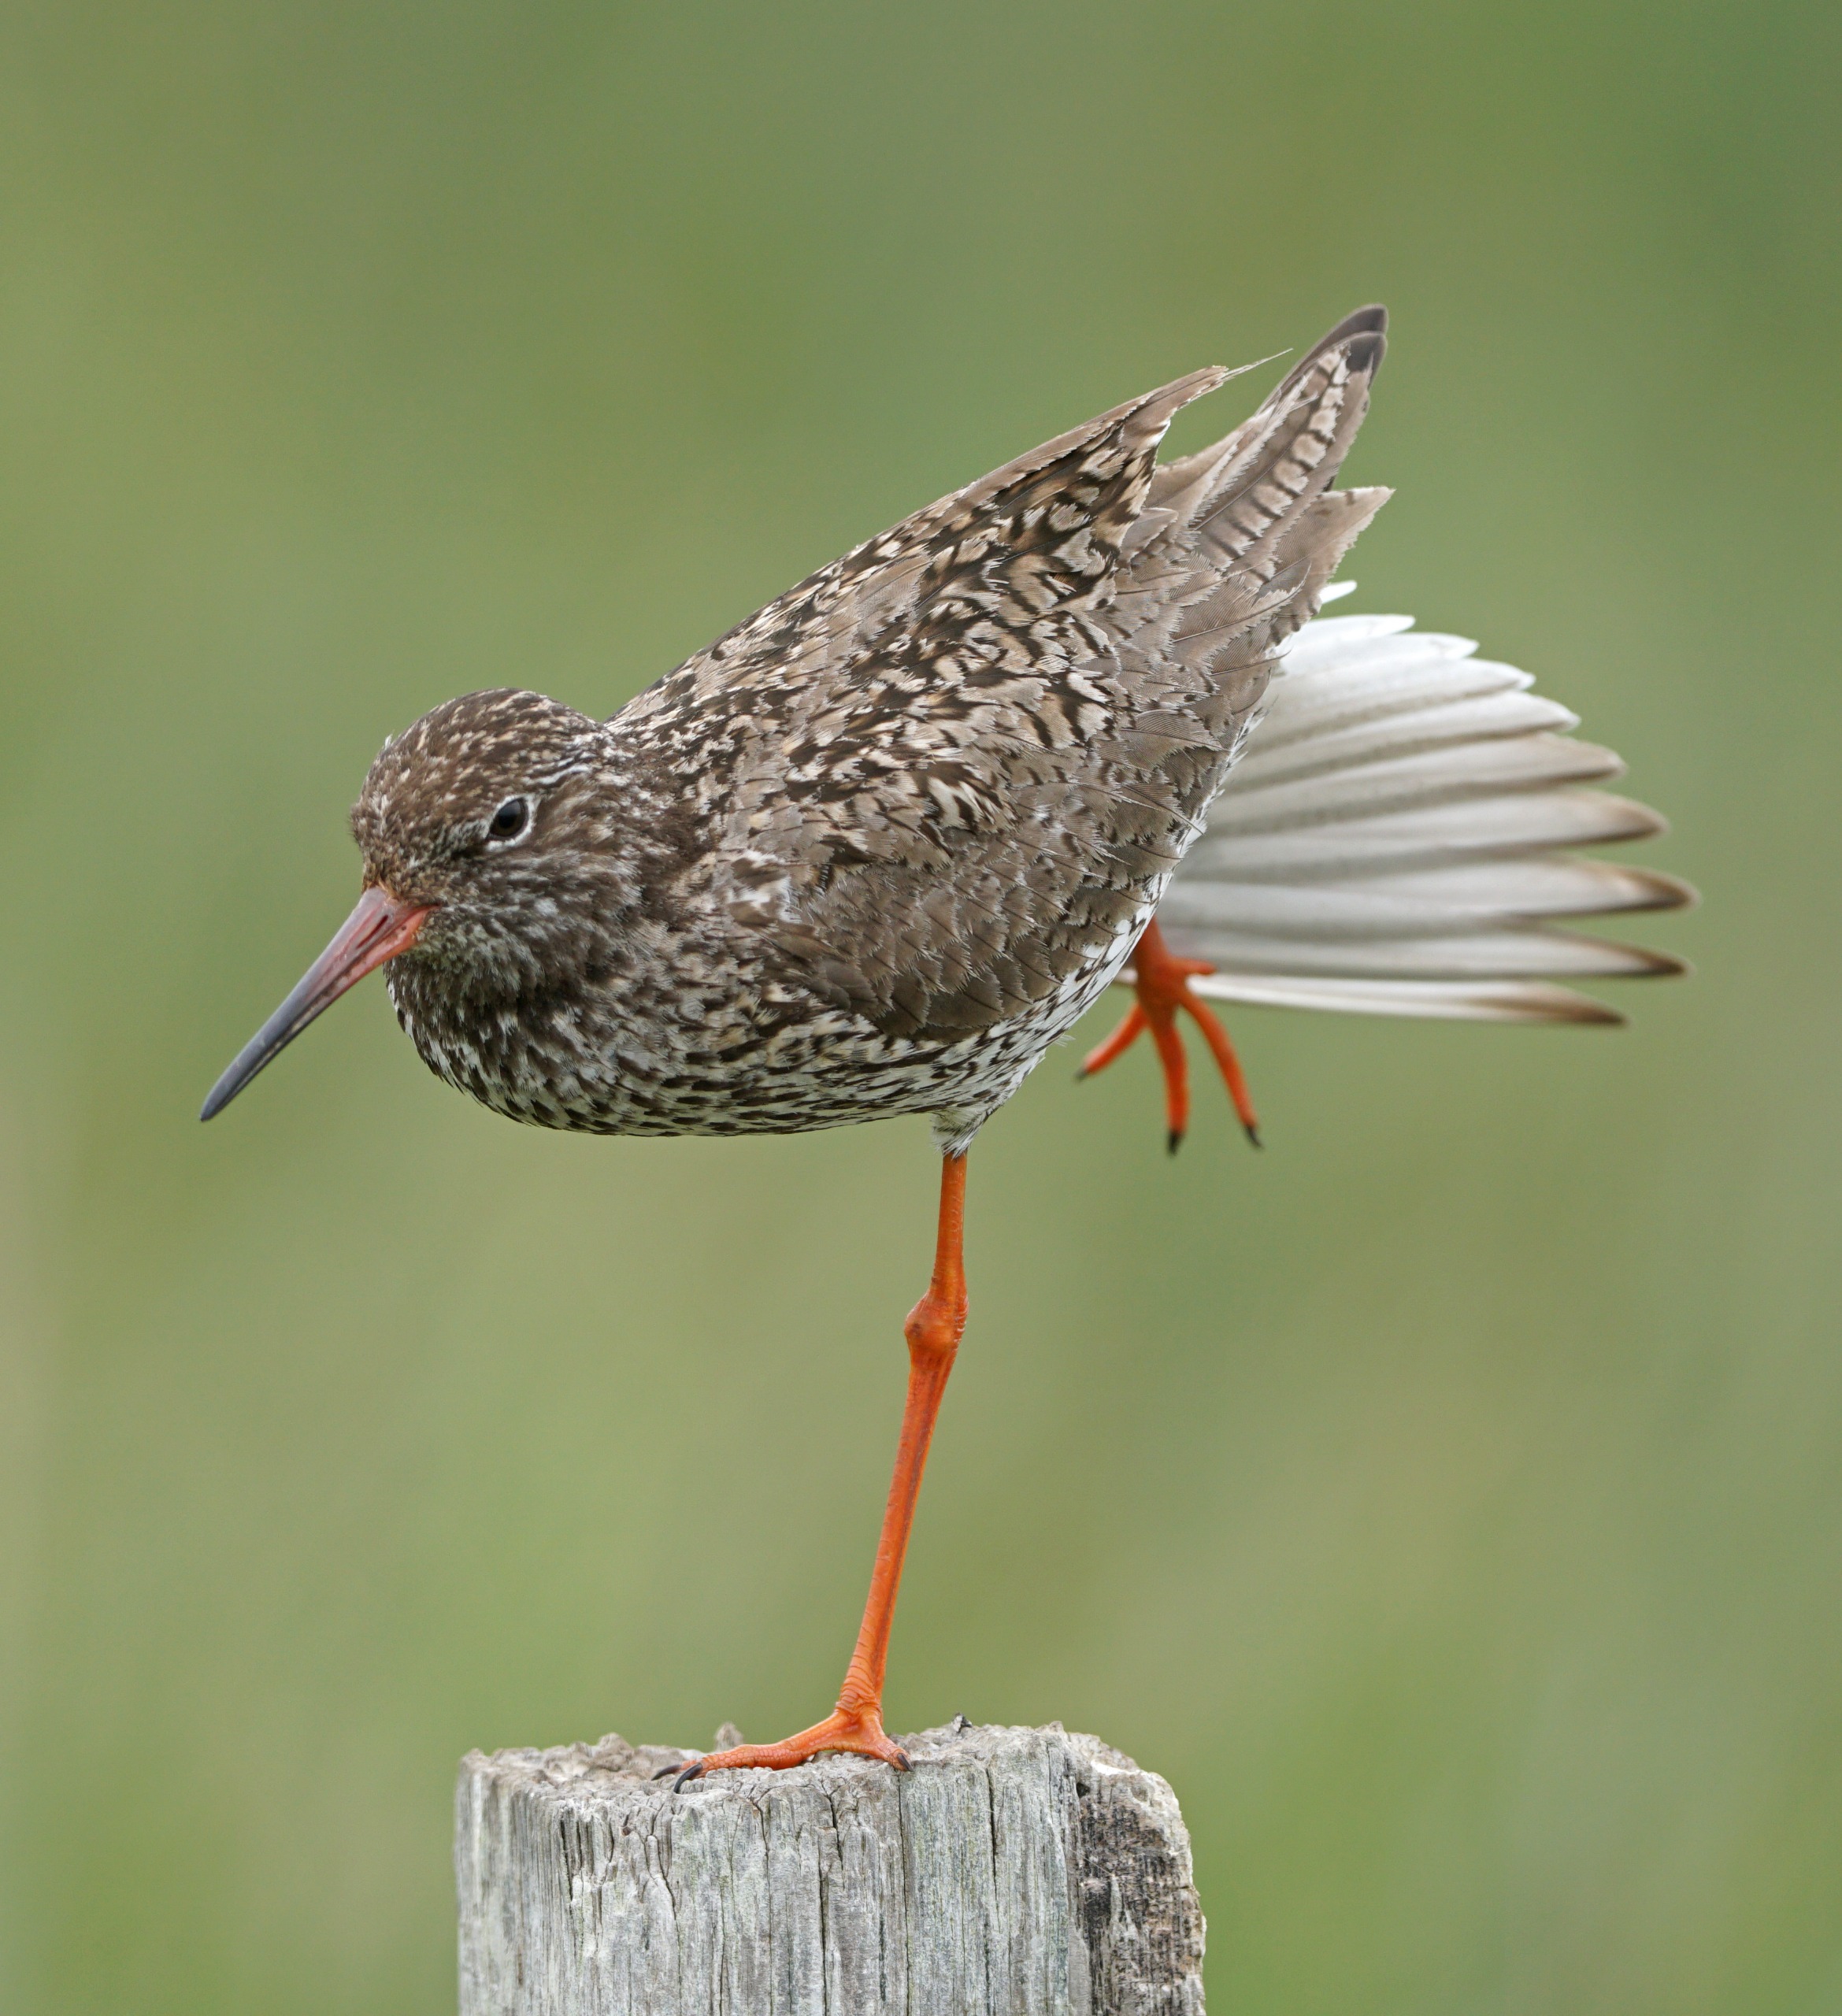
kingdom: Animalia
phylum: Chordata
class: Aves
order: Charadriiformes
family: Scolopacidae
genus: Tringa
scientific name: Tringa totanus
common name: Rødben
